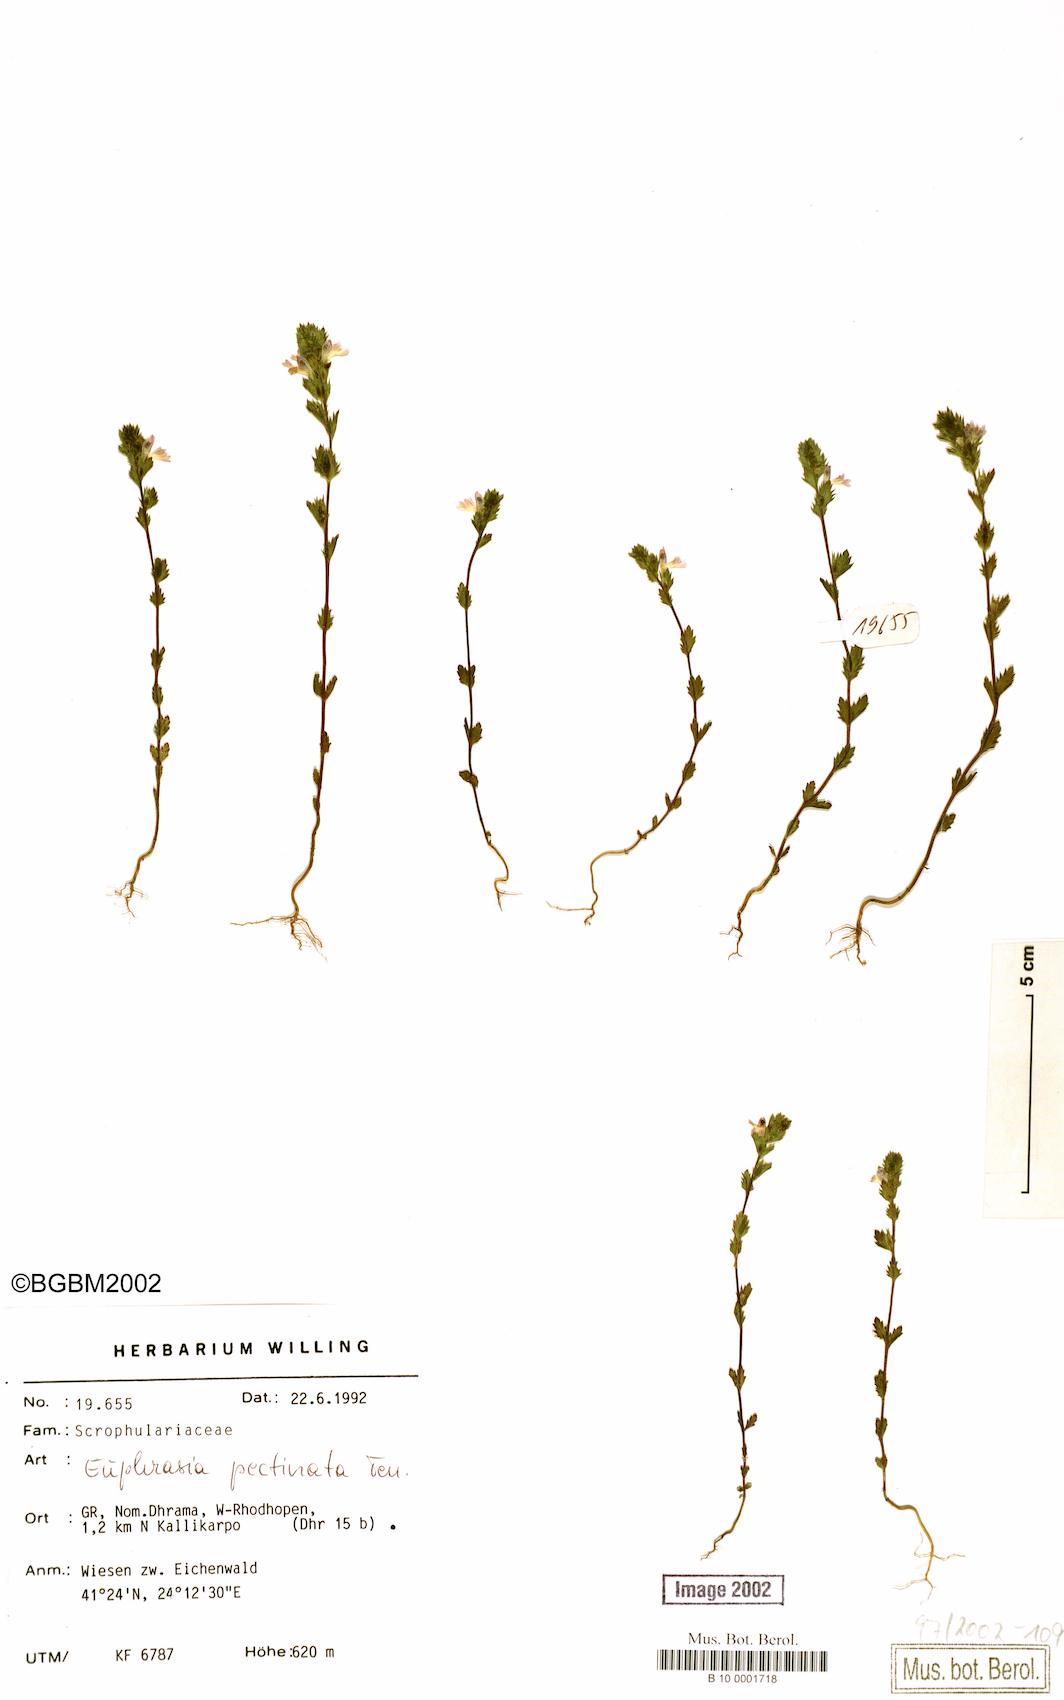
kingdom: Plantae
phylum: Tracheophyta
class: Magnoliopsida
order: Lamiales
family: Orobanchaceae
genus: Euphrasia
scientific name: Euphrasia pectinata
